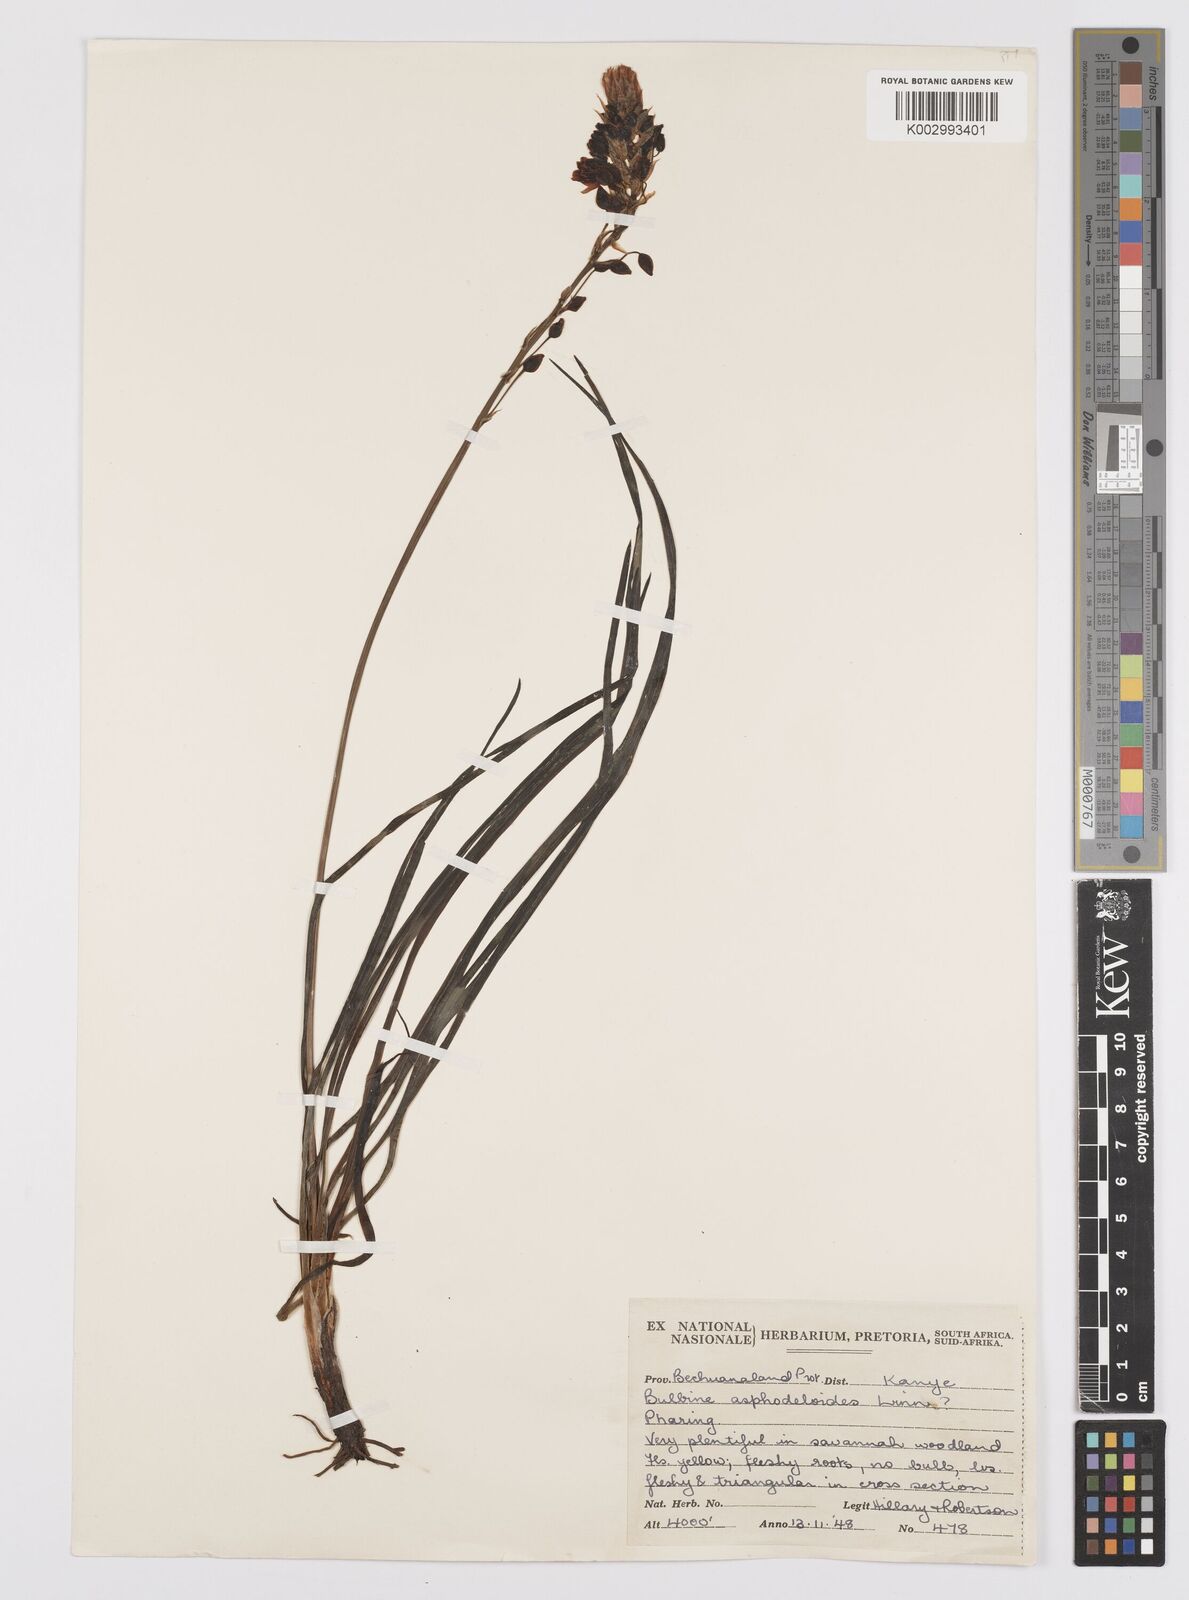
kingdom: Plantae
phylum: Tracheophyta
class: Liliopsida
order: Asparagales
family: Asphodelaceae
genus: Bulbine
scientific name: Bulbine abyssinica
